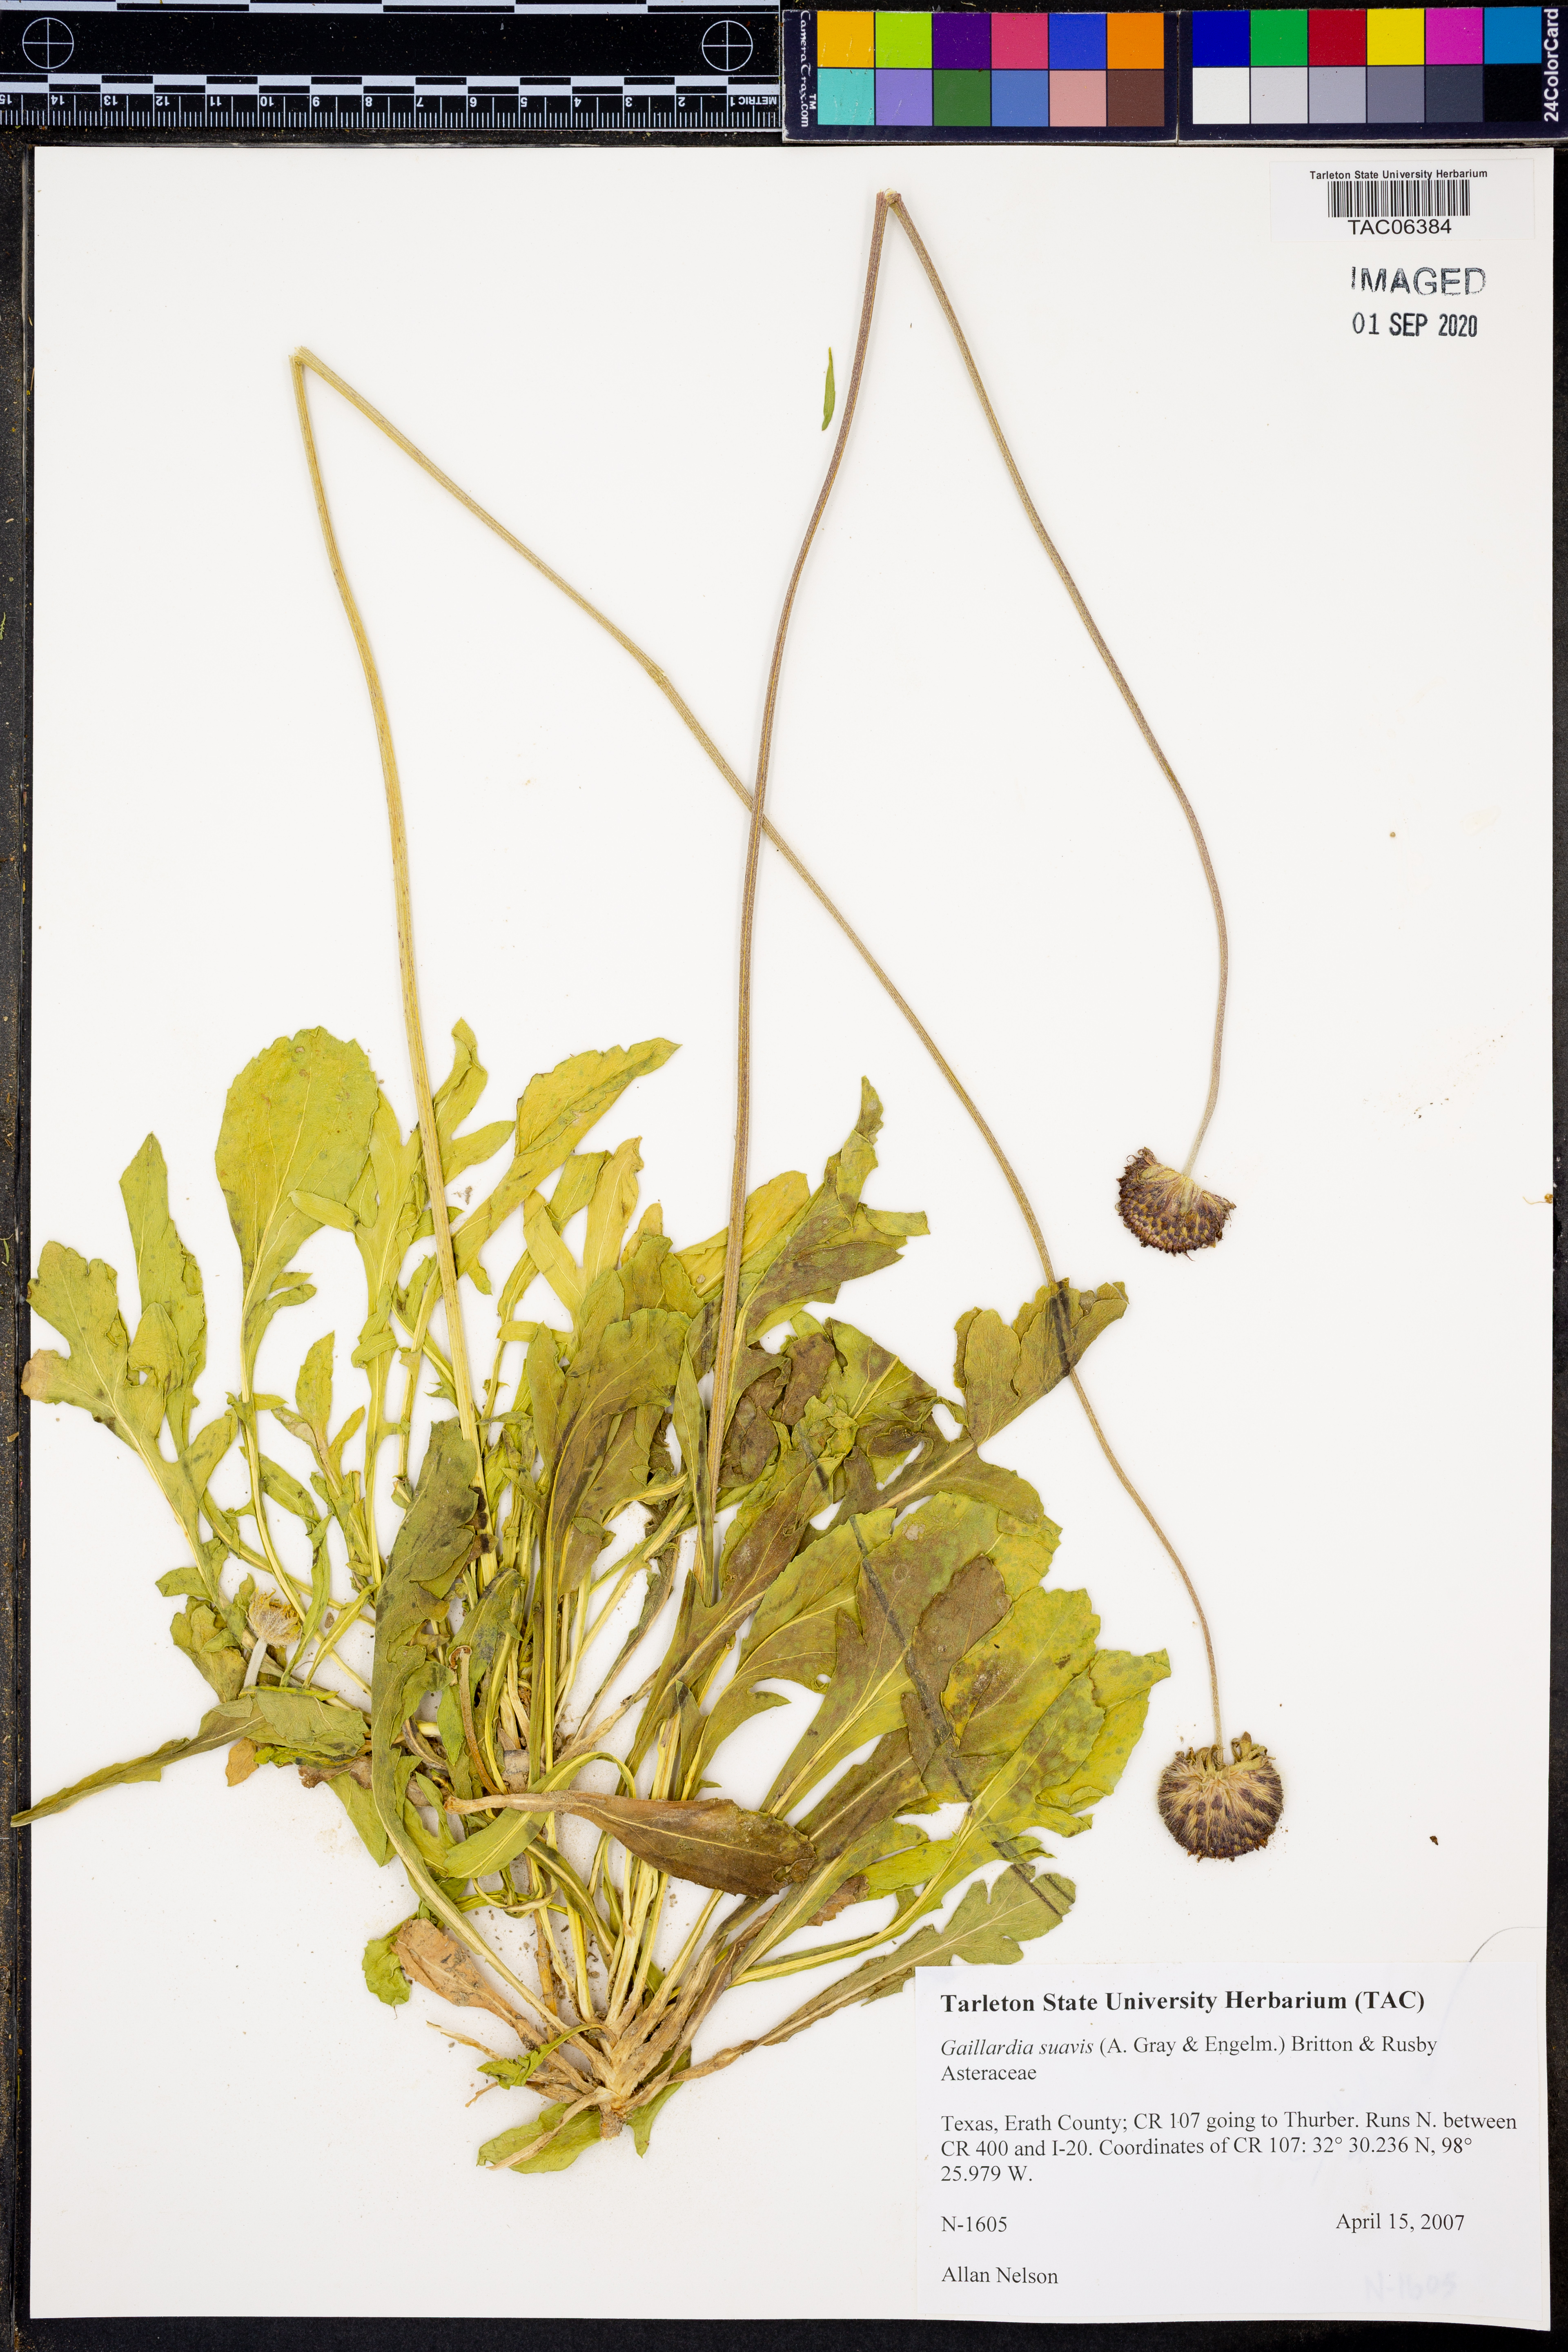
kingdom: Plantae
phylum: Tracheophyta
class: Magnoliopsida
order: Asterales
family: Asteraceae
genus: Gaillardia
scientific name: Gaillardia suavis
